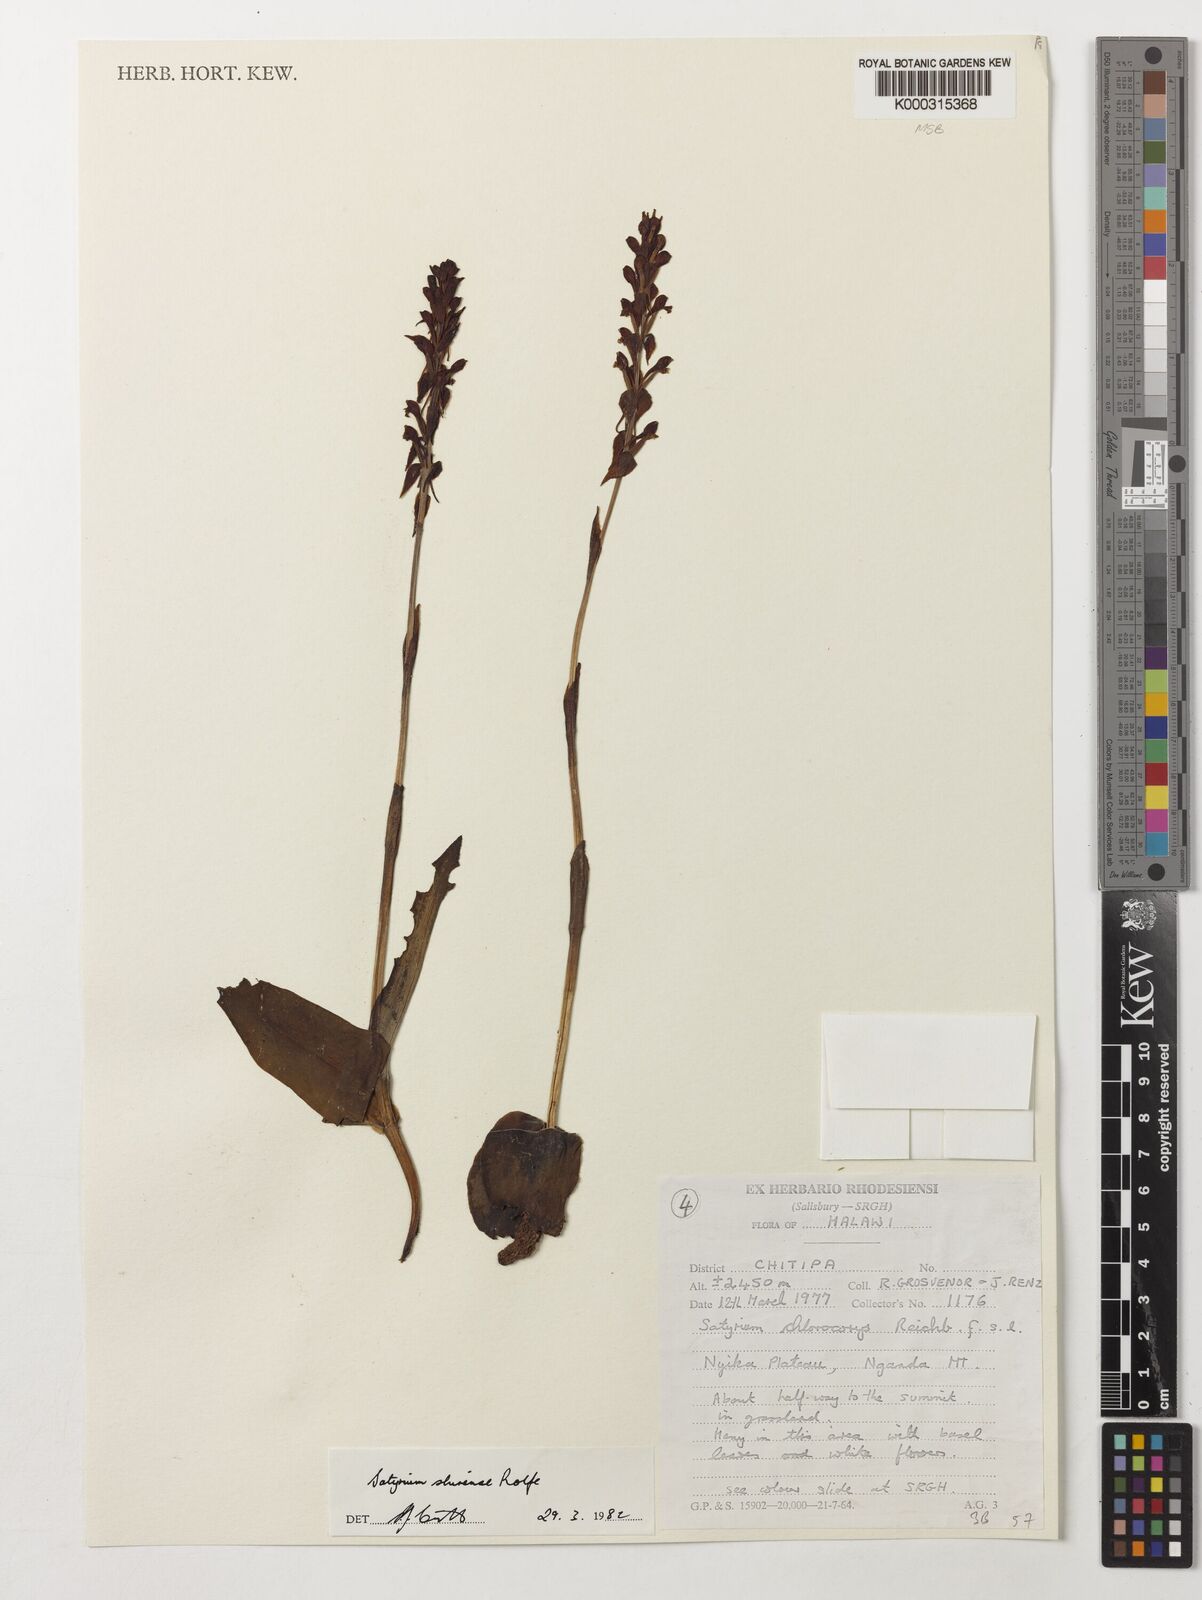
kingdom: Plantae
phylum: Tracheophyta
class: Liliopsida
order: Asparagales
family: Orchidaceae
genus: Satyrium
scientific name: Satyrium shirense
